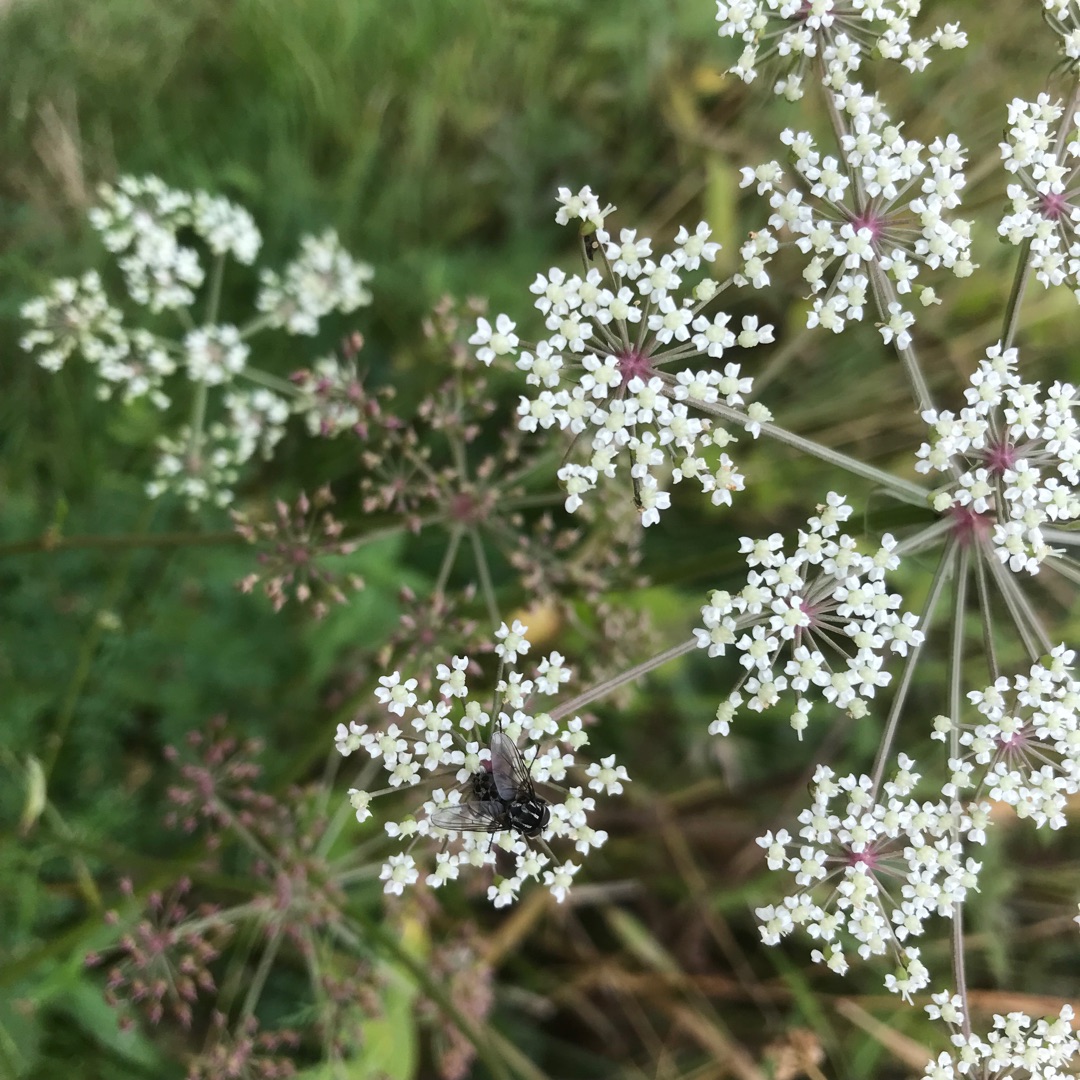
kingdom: Animalia
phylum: Arthropoda
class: Insecta
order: Diptera
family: Muscidae
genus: Graphomya
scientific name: Graphomya maculata
